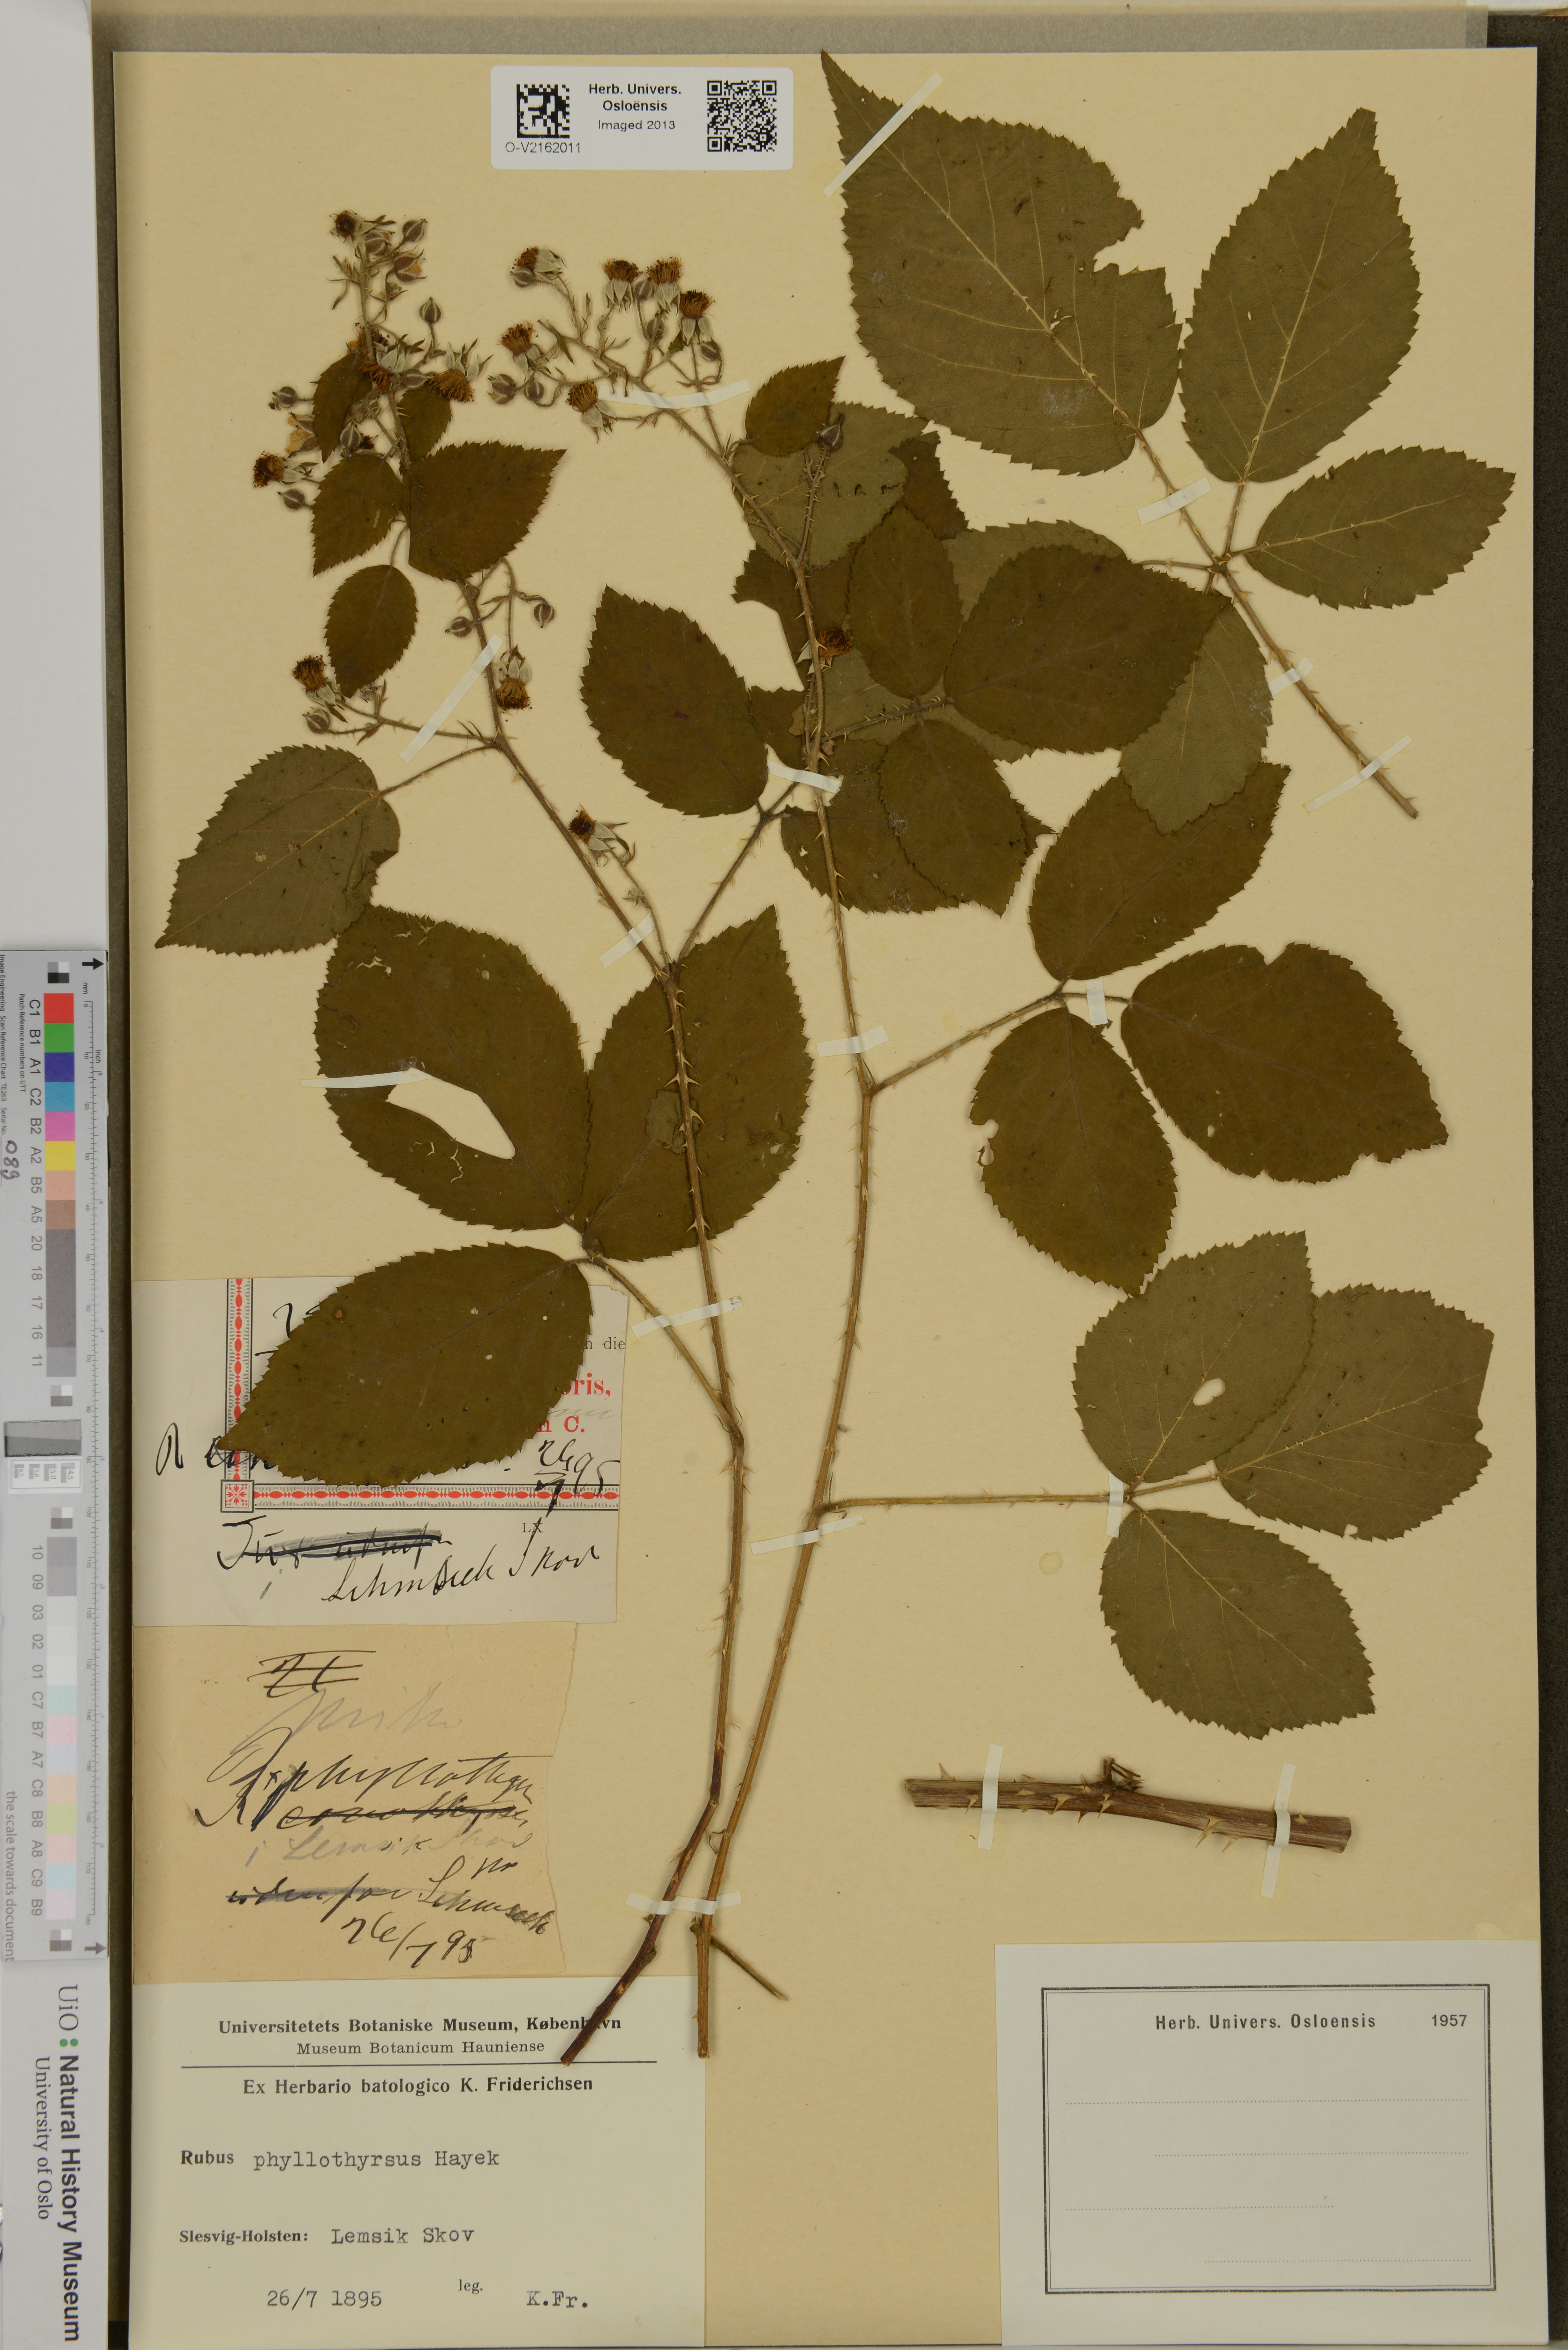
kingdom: Plantae
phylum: Tracheophyta
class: Magnoliopsida
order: Rosales
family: Rosaceae
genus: Rubus
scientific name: Rubus phyllothyrsus
